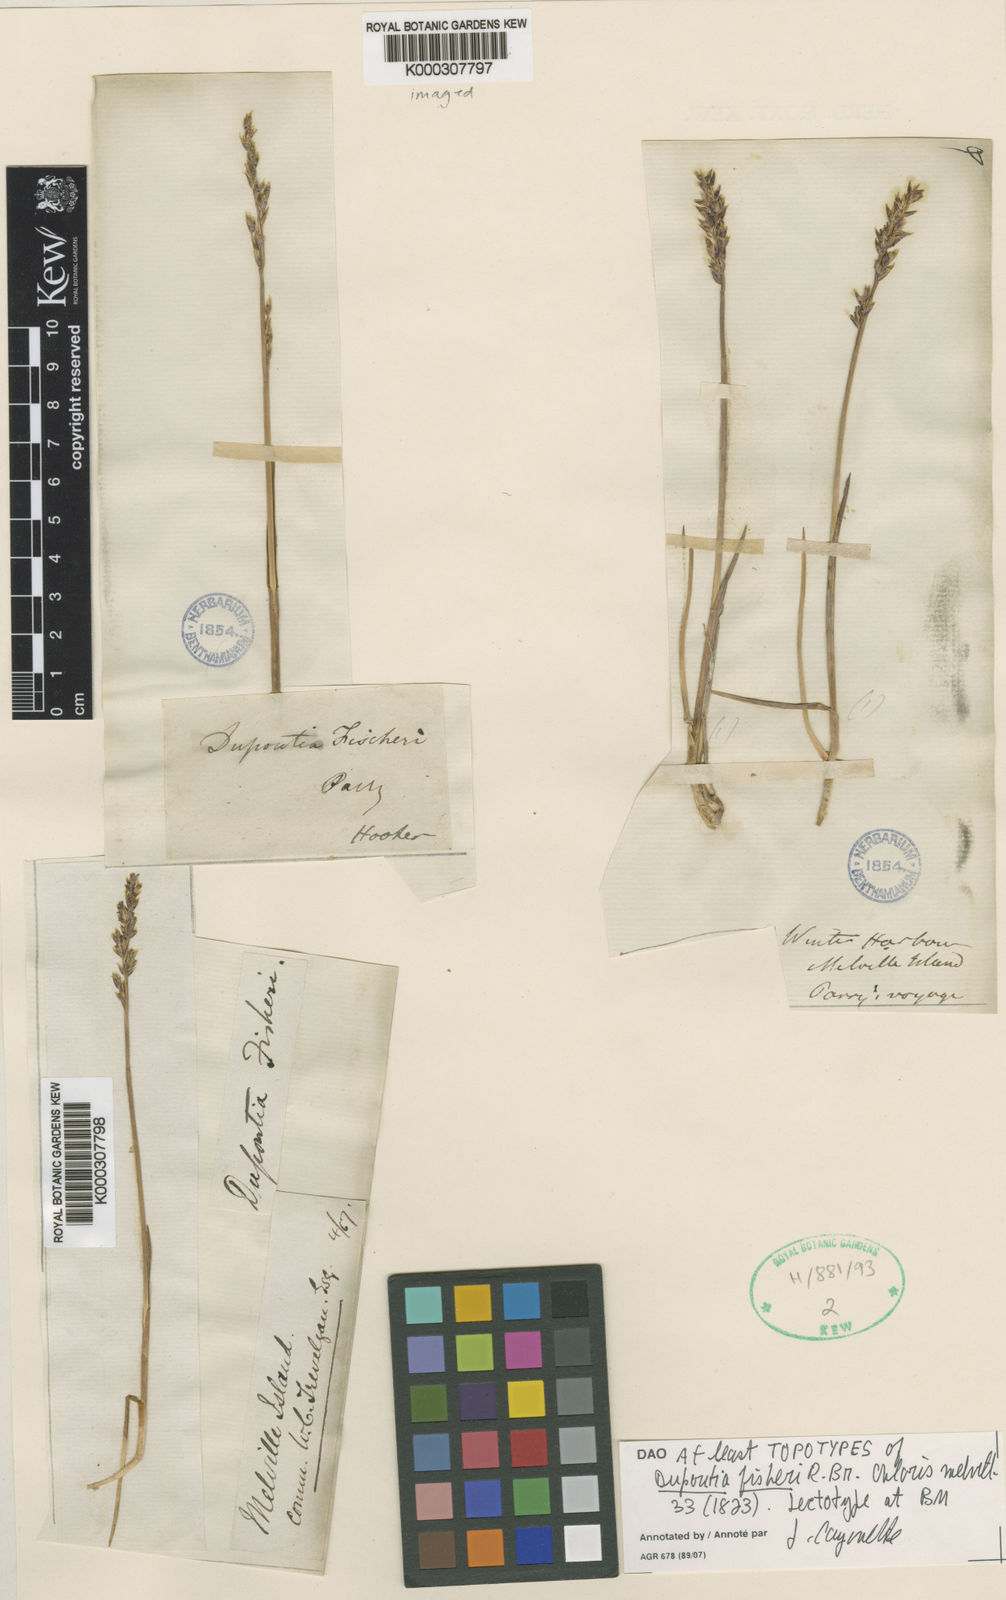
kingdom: Plantae
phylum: Tracheophyta
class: Liliopsida
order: Poales
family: Poaceae
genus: Dupontia
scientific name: Dupontia fisheri
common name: Tundra grass
